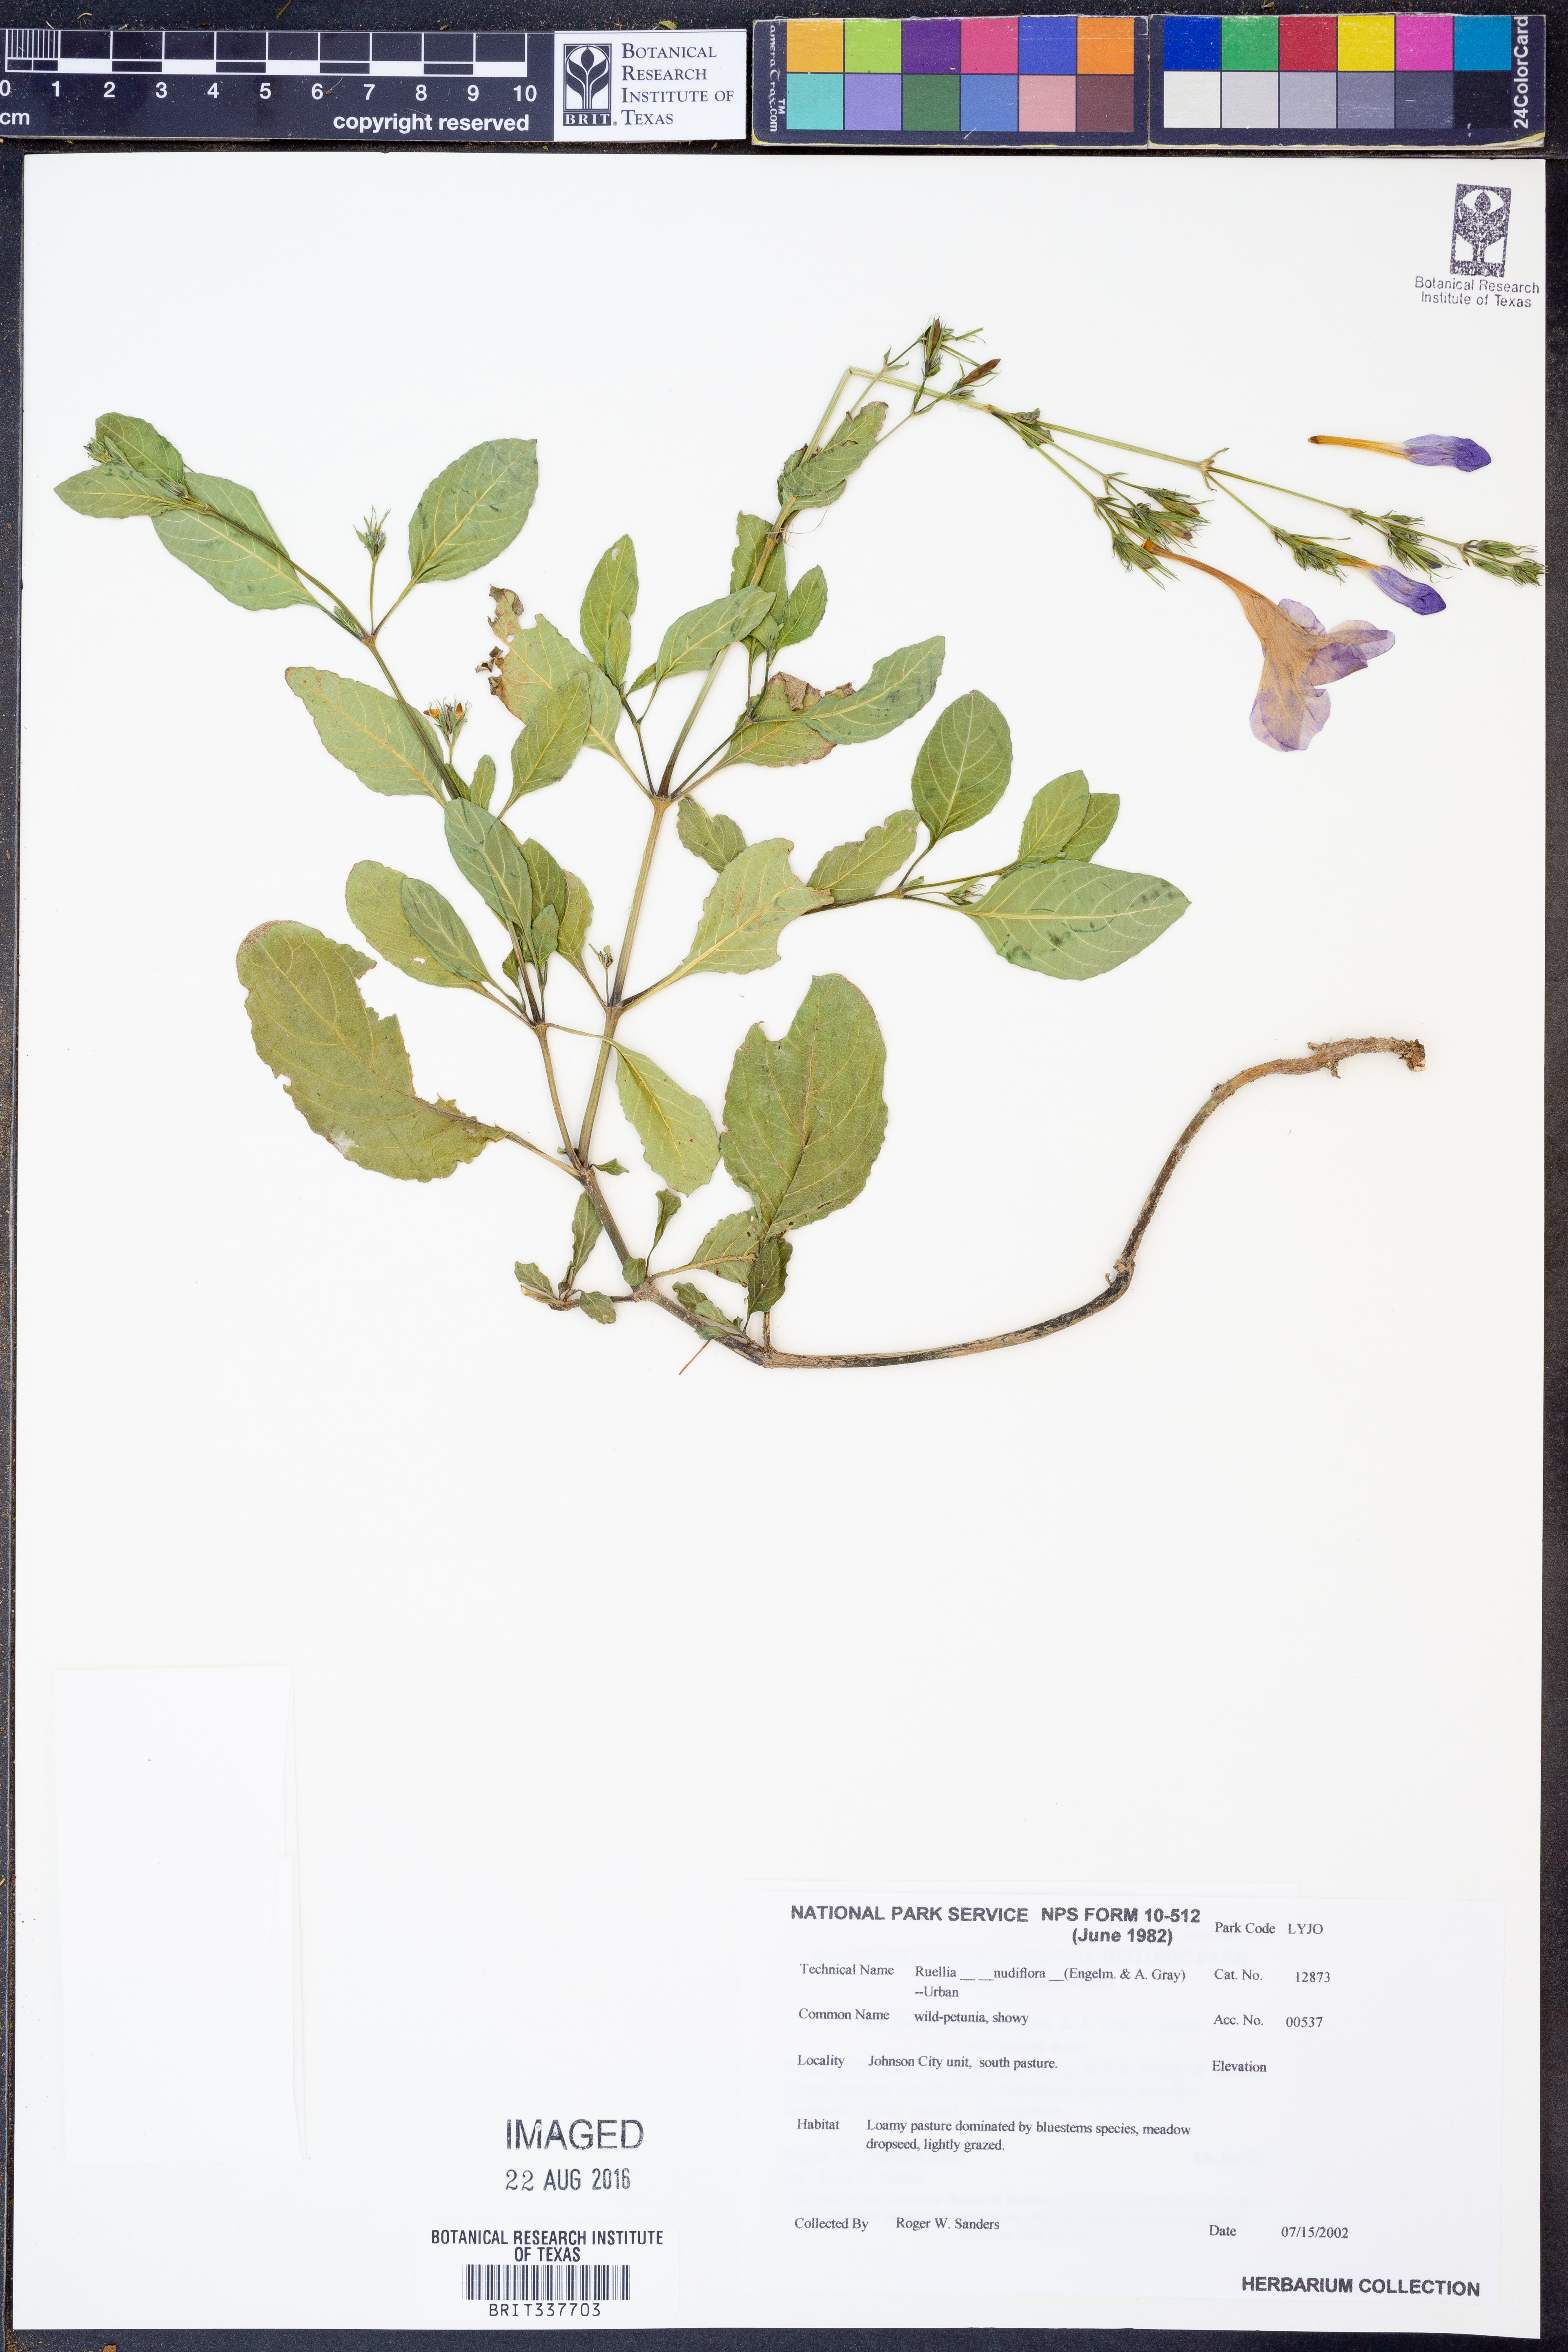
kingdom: Plantae
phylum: Tracheophyta
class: Magnoliopsida
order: Lamiales
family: Acanthaceae
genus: Ruellia
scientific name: Ruellia ciliatiflora
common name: Hairyflower wild petunia
